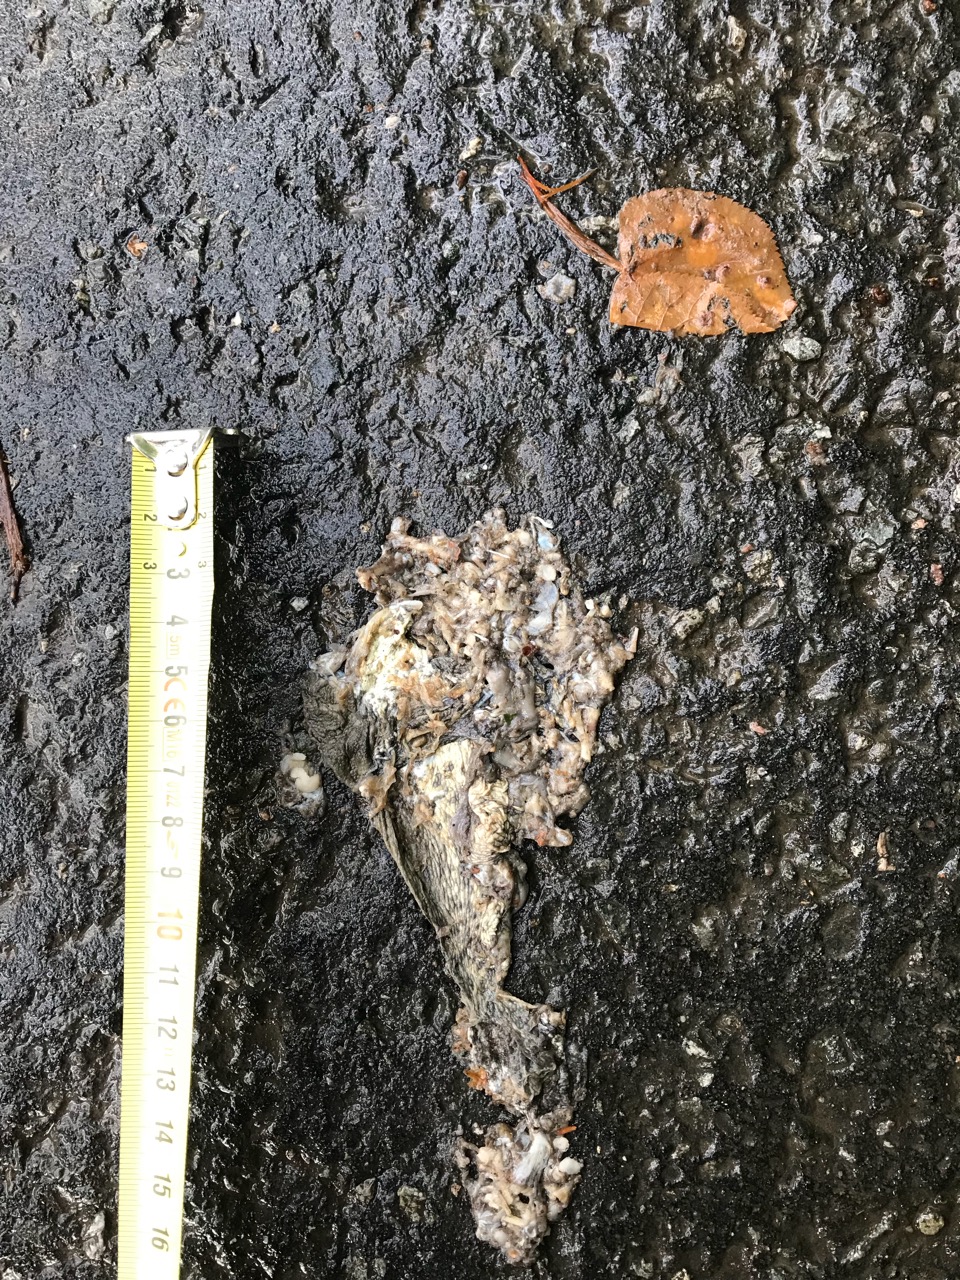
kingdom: Animalia
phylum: Chordata
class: Amphibia
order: Anura
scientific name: Anura
